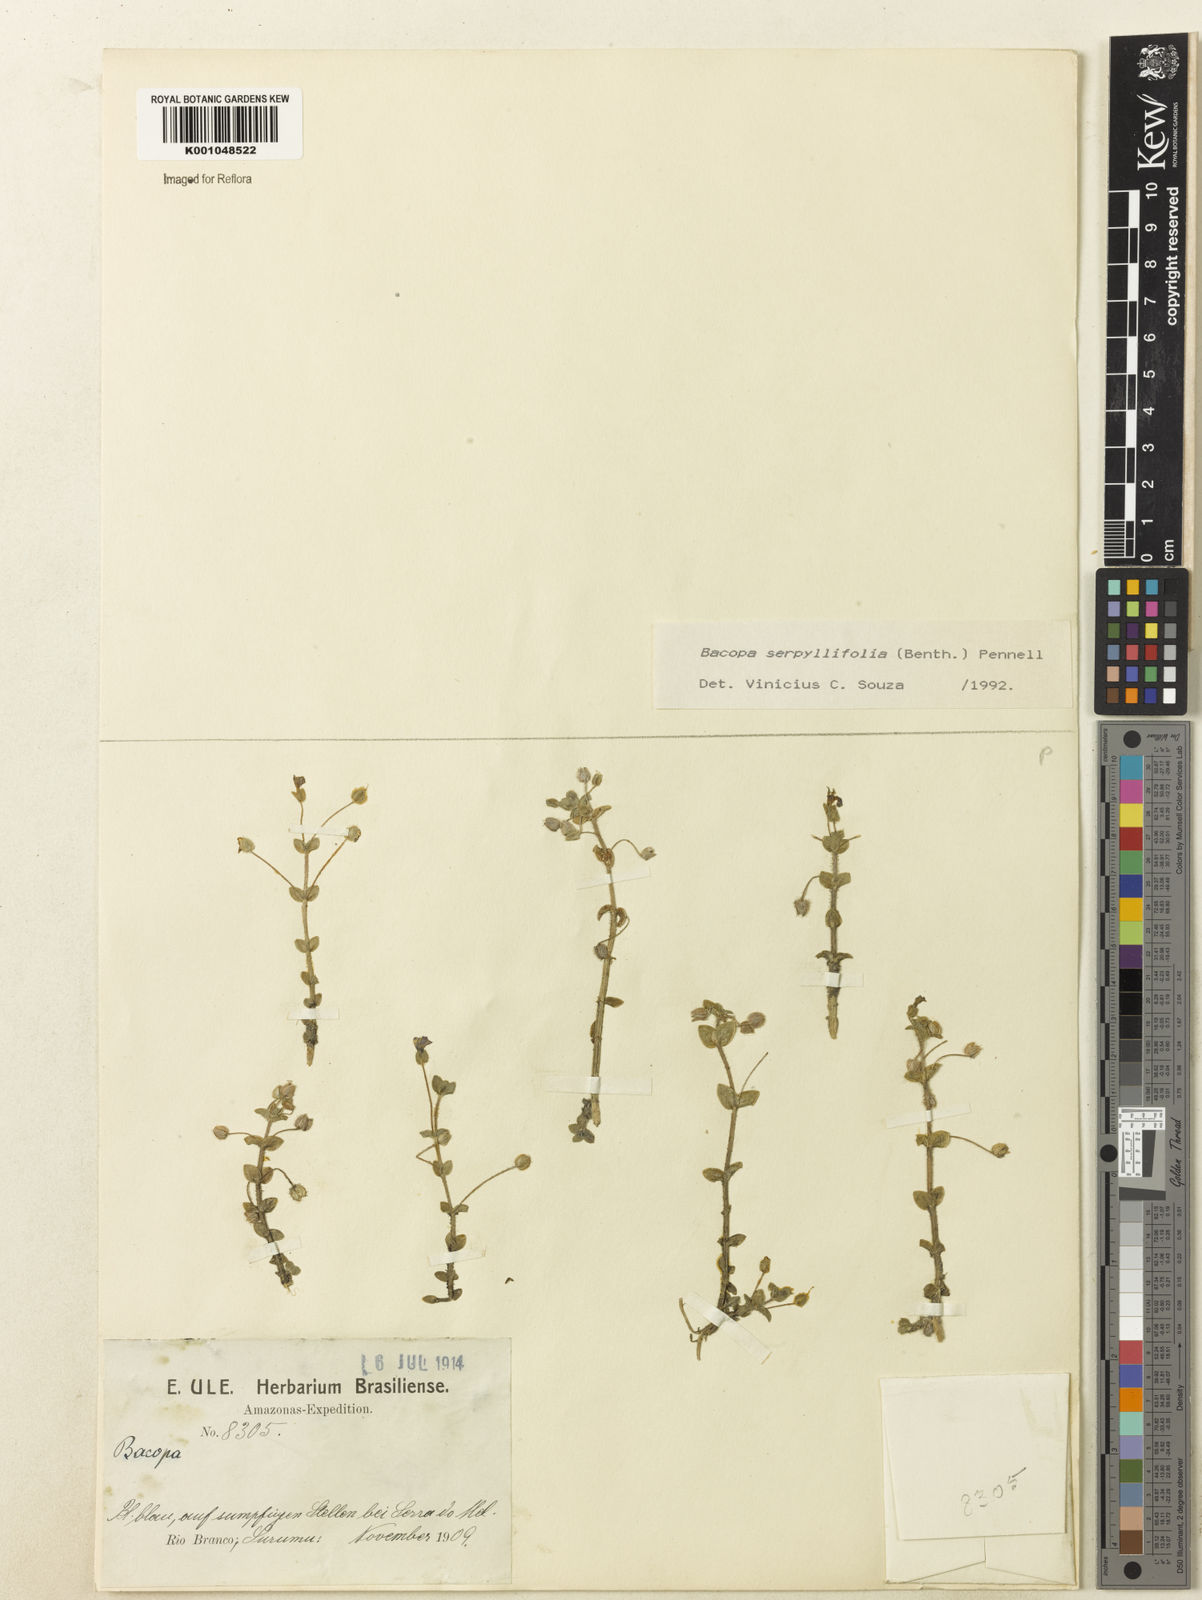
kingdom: Plantae
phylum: Tracheophyta
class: Magnoliopsida
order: Lamiales
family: Plantaginaceae
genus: Bacopa
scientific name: Bacopa serpyllifolia
